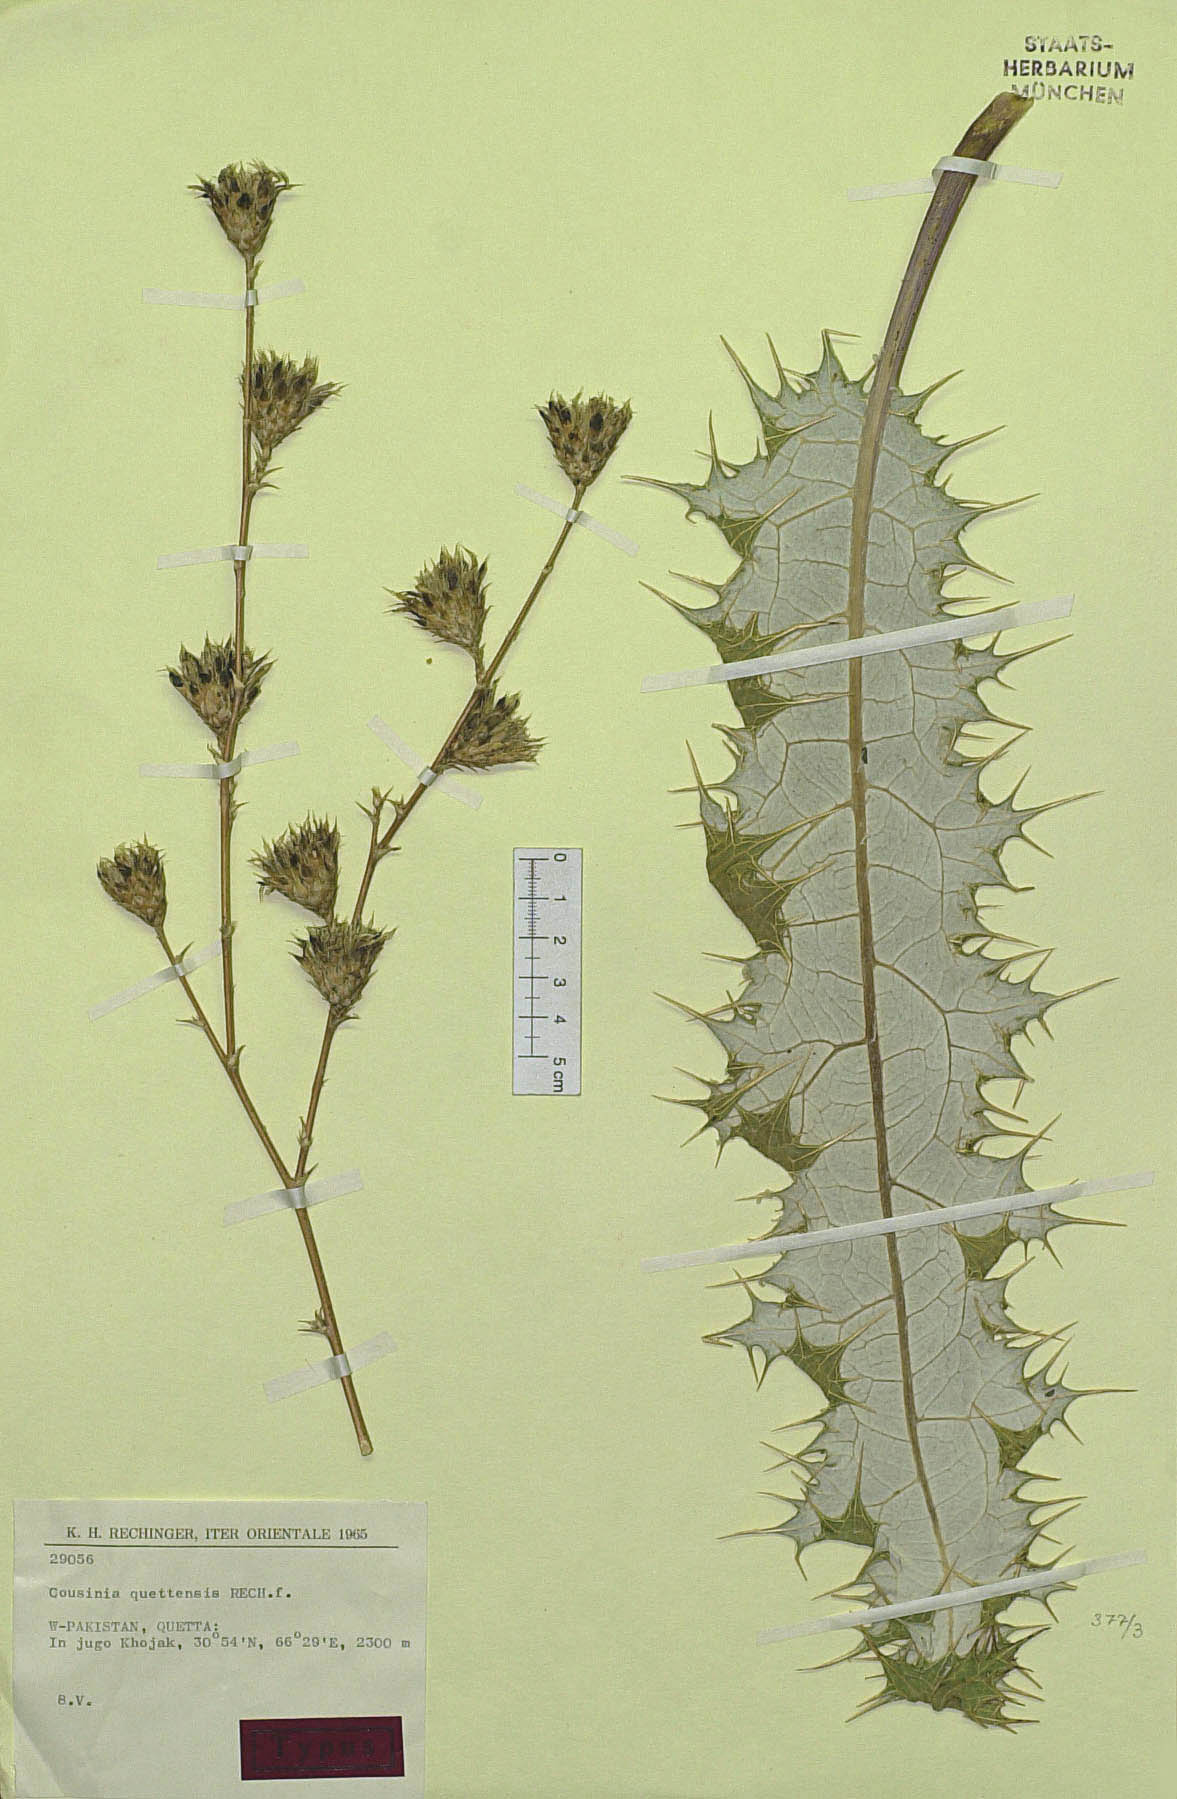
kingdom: Plantae
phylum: Tracheophyta
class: Magnoliopsida
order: Asterales
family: Asteraceae
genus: Cousinia
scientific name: Cousinia quettensis
